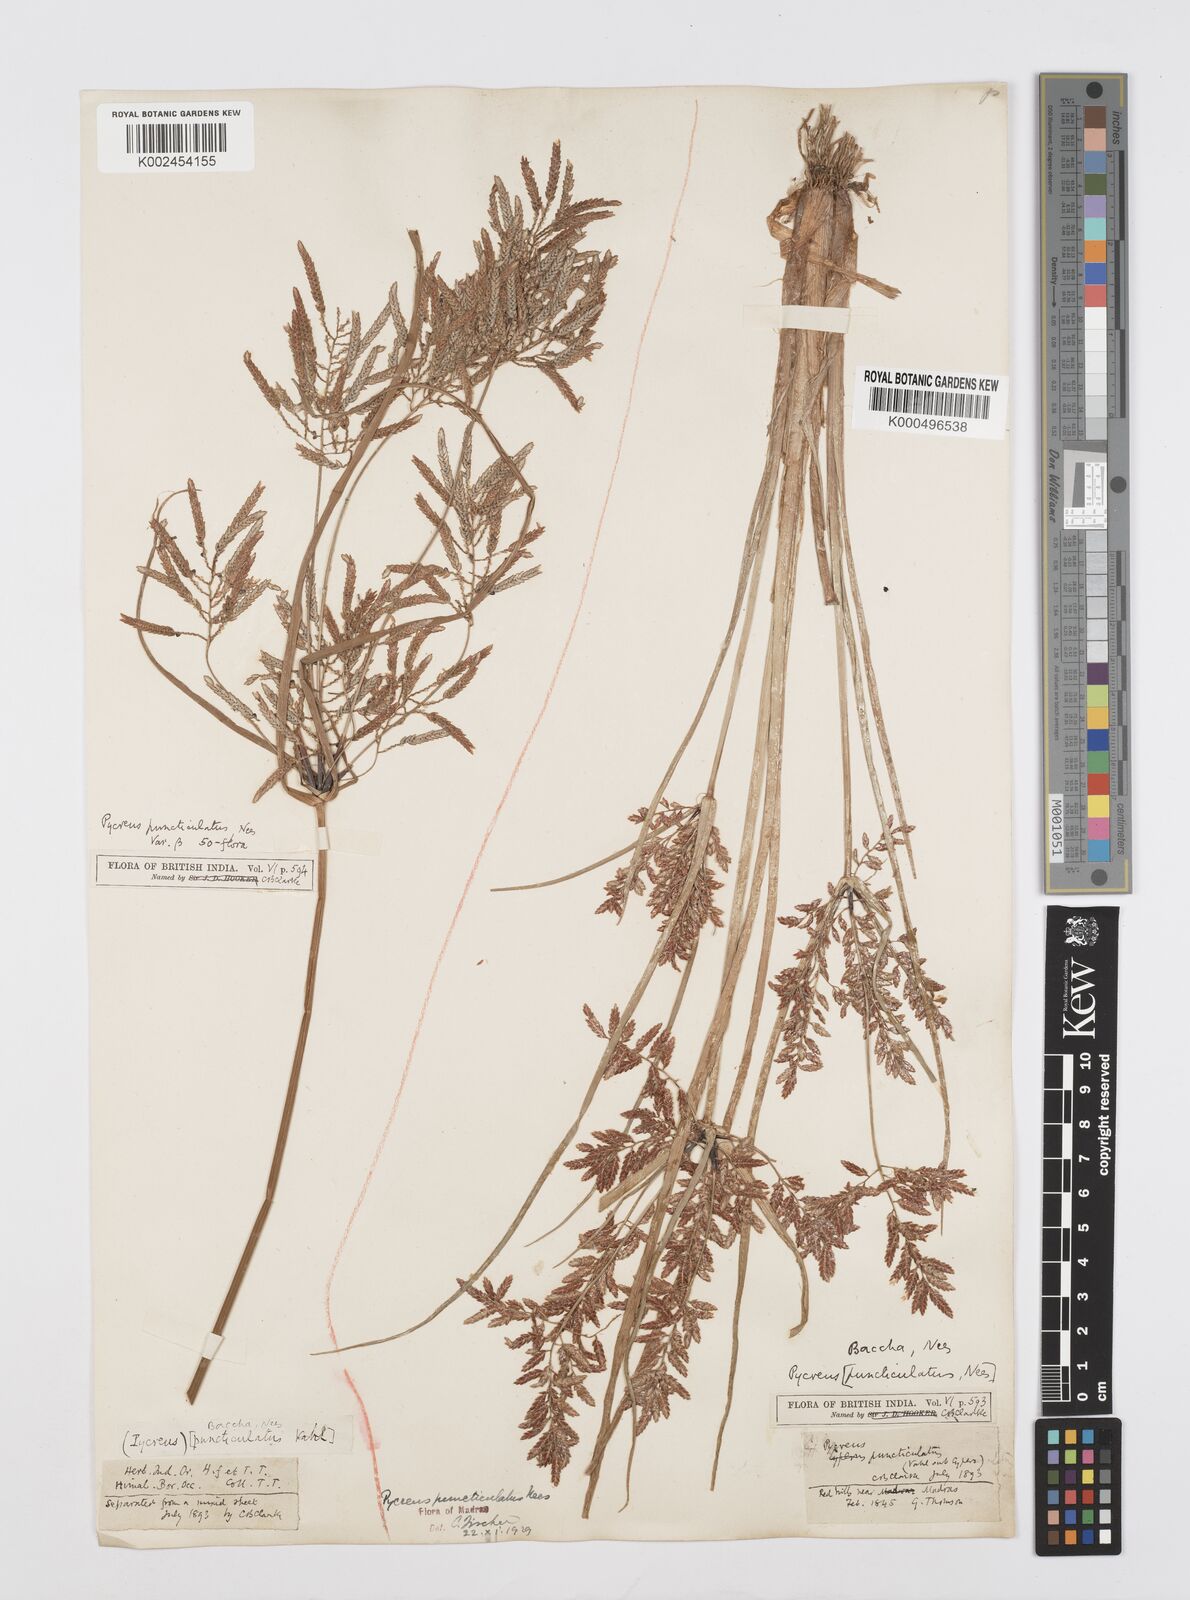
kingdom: Plantae
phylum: Tracheophyta
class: Liliopsida
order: Poales
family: Cyperaceae
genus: Cyperus
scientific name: Cyperus serotinus
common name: Tidalmarsh flatsedge
